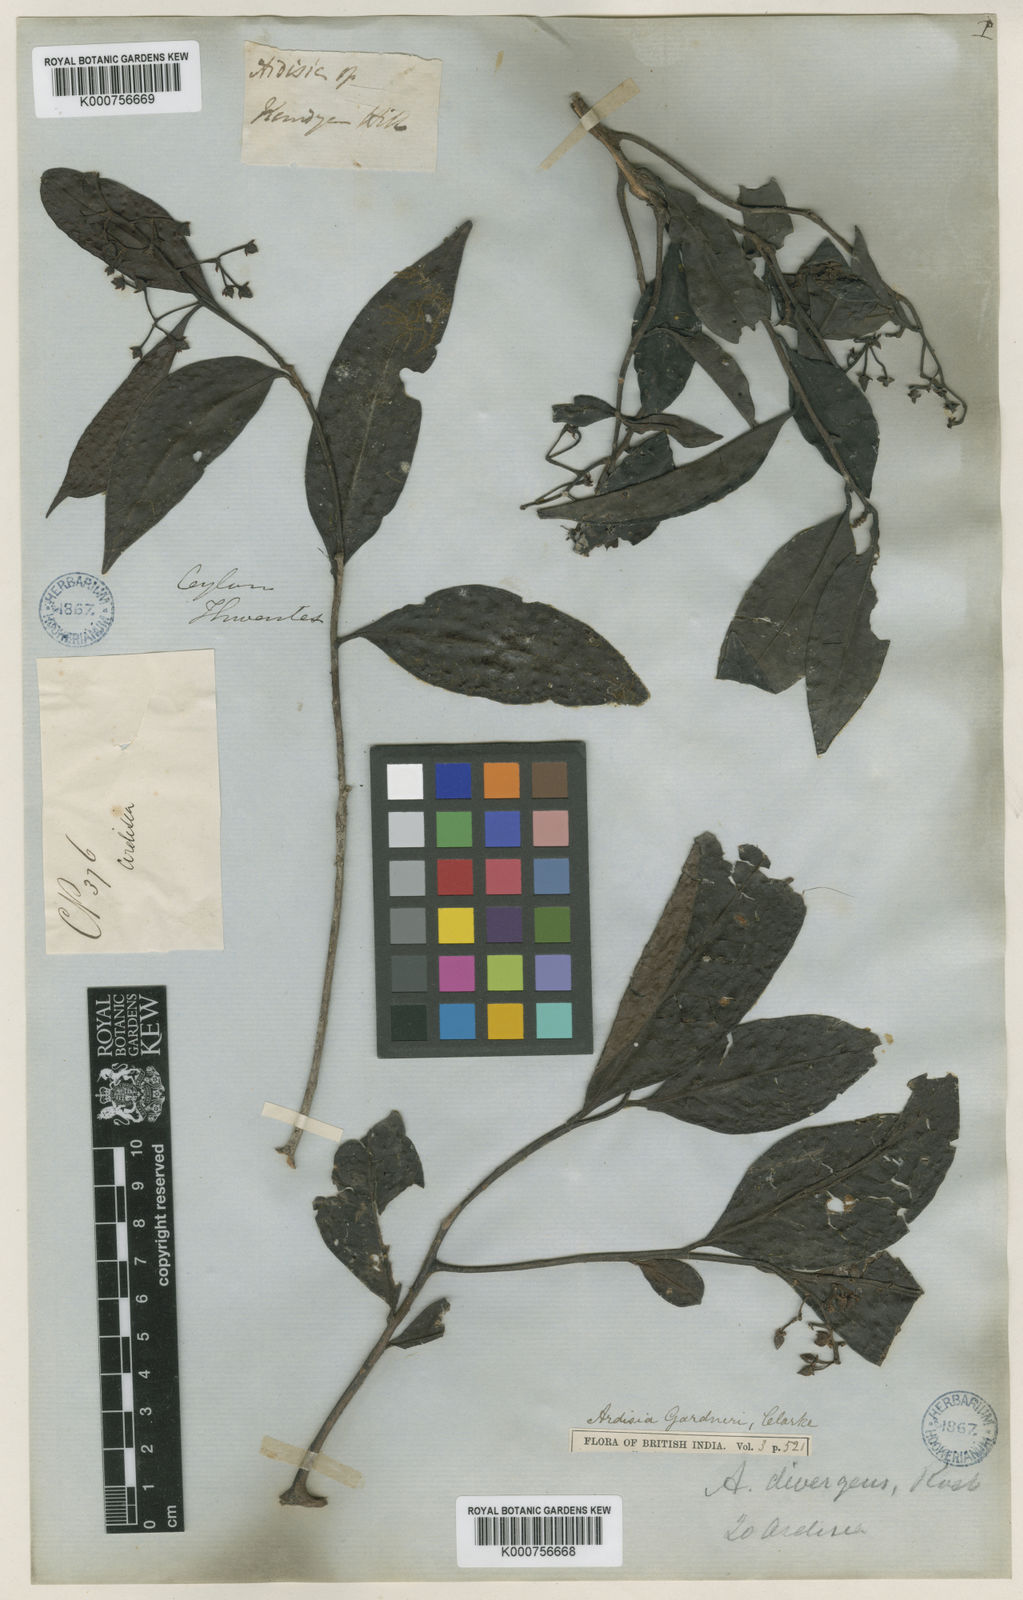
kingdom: Plantae
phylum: Tracheophyta
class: Magnoliopsida
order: Ericales
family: Primulaceae
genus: Ardisia
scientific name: Ardisia gardneri
